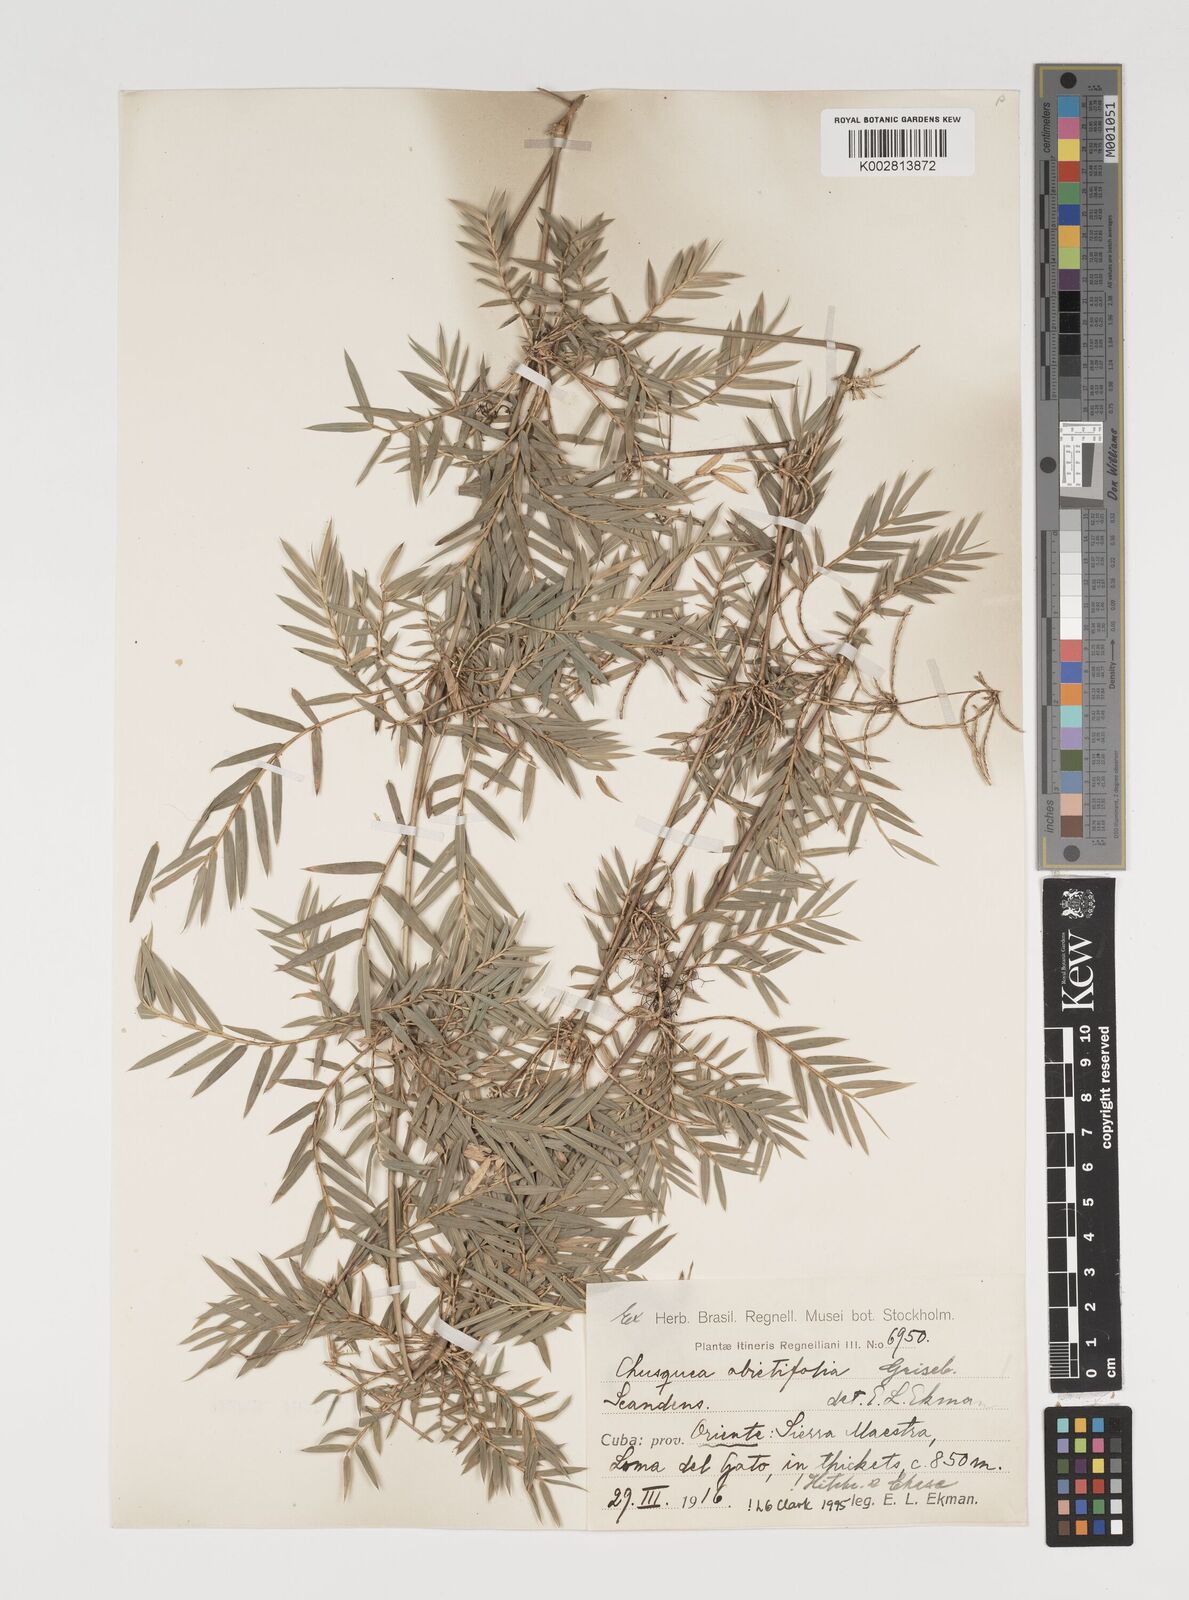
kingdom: Plantae
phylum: Tracheophyta
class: Liliopsida
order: Poales
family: Poaceae
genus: Chusquea
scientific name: Chusquea abietifolia
